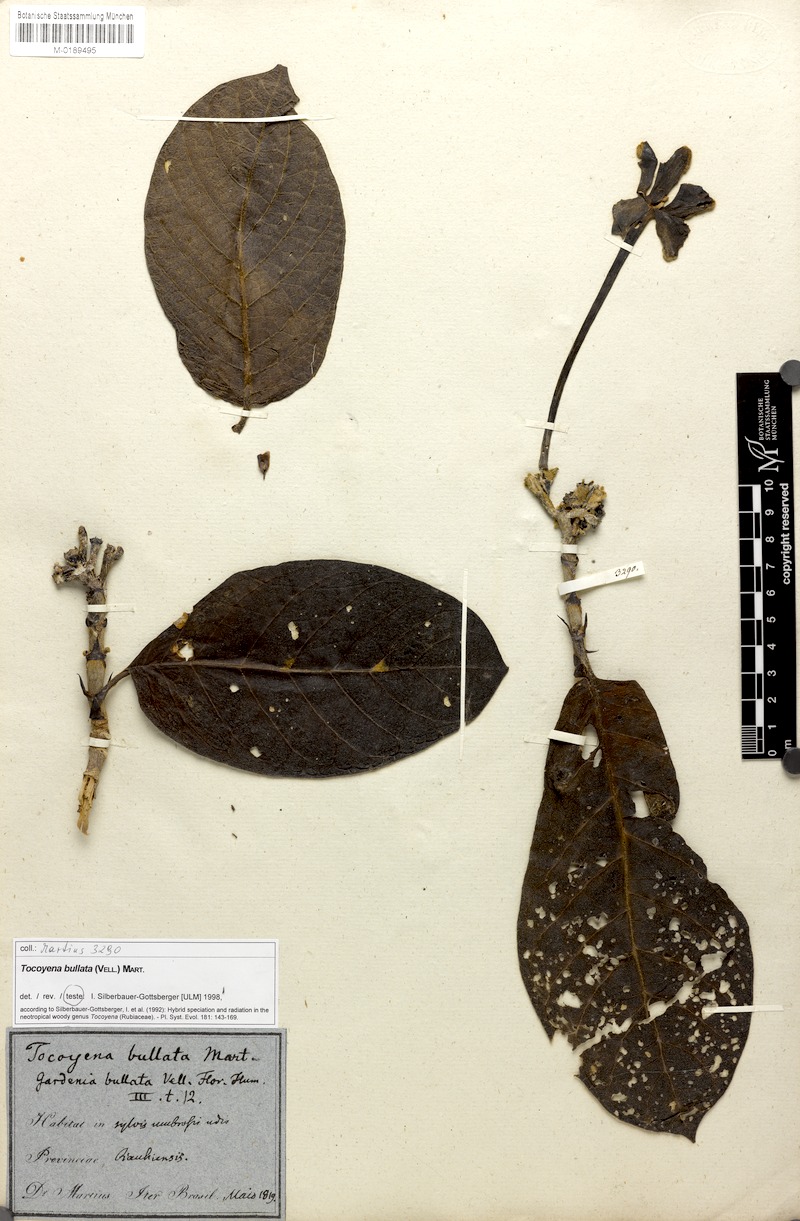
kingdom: Plantae
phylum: Tracheophyta
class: Magnoliopsida
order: Gentianales
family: Rubiaceae
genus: Tocoyena
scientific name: Tocoyena bullata
